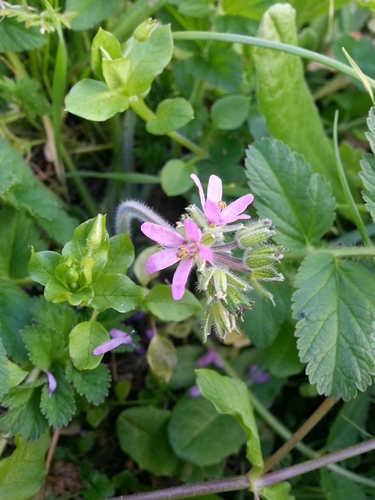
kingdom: Plantae
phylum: Tracheophyta
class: Magnoliopsida
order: Geraniales
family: Geraniaceae
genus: Erodium
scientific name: Erodium moschatum
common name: Musk stork's-bill
